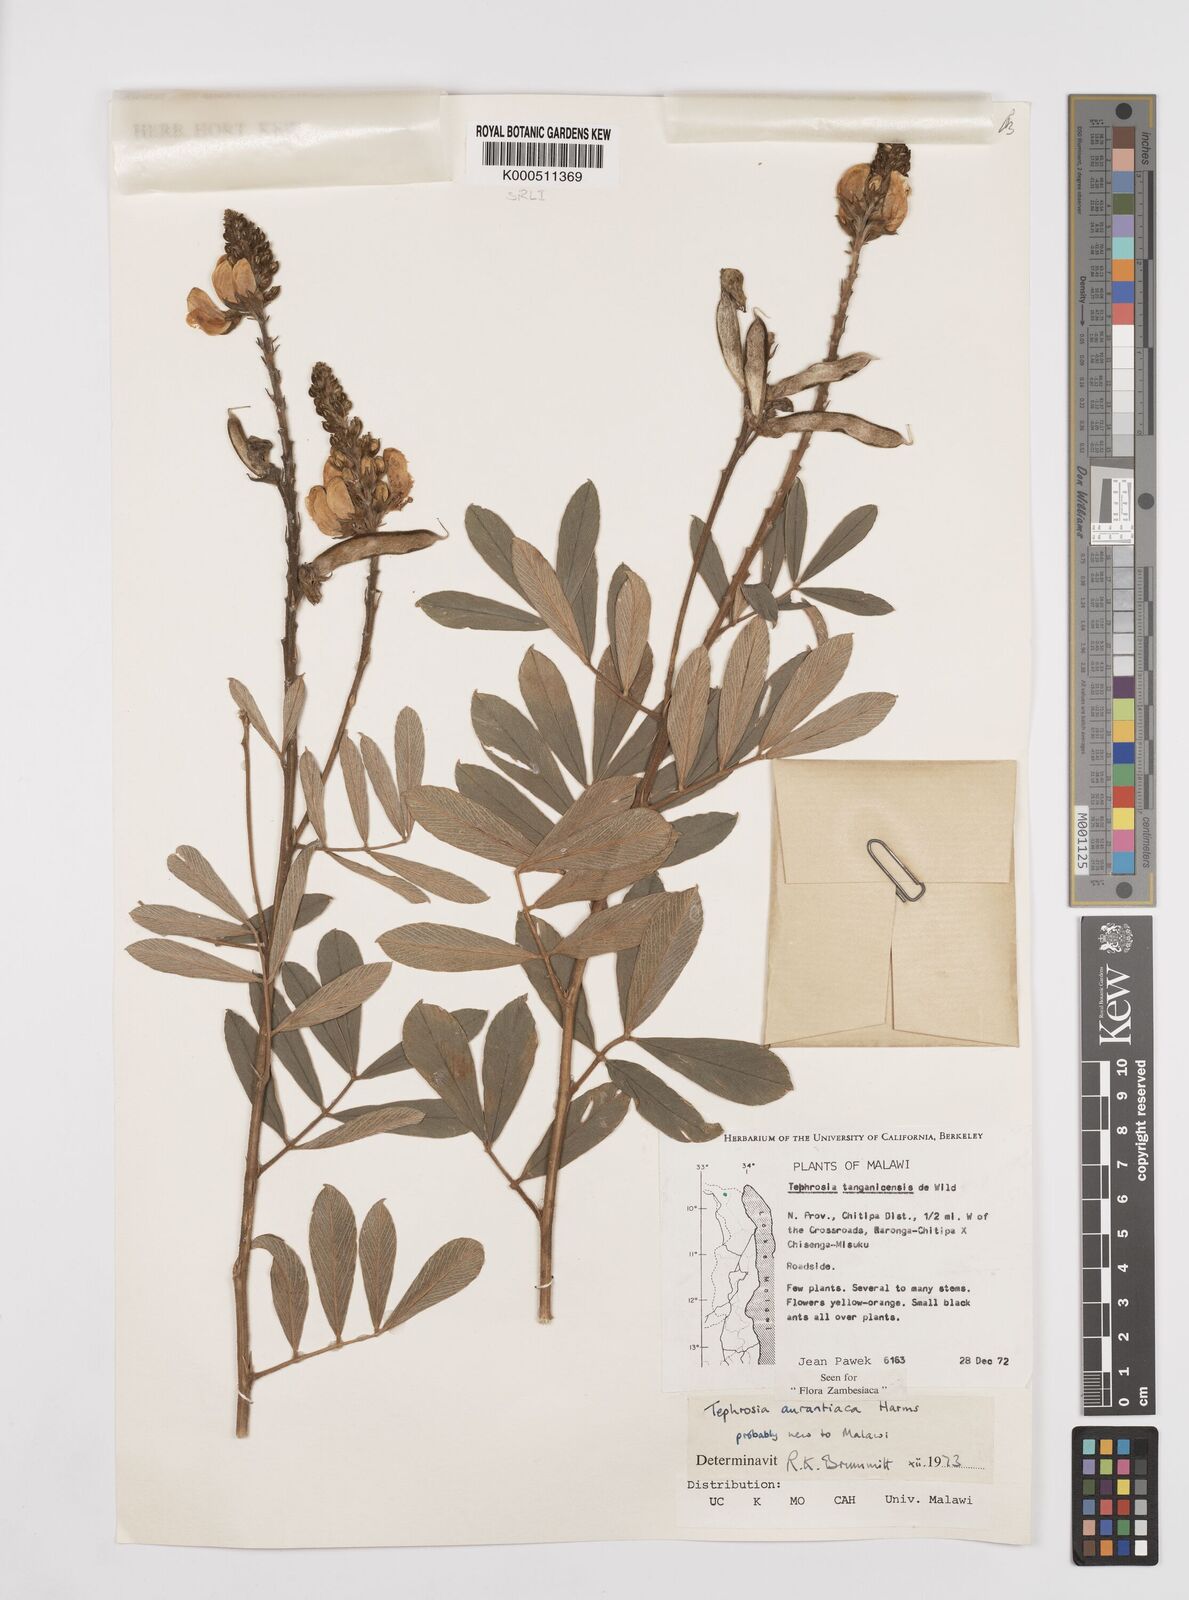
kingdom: Plantae
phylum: Tracheophyta
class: Magnoliopsida
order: Fabales
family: Fabaceae
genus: Tephrosia
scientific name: Tephrosia aurantiaca
